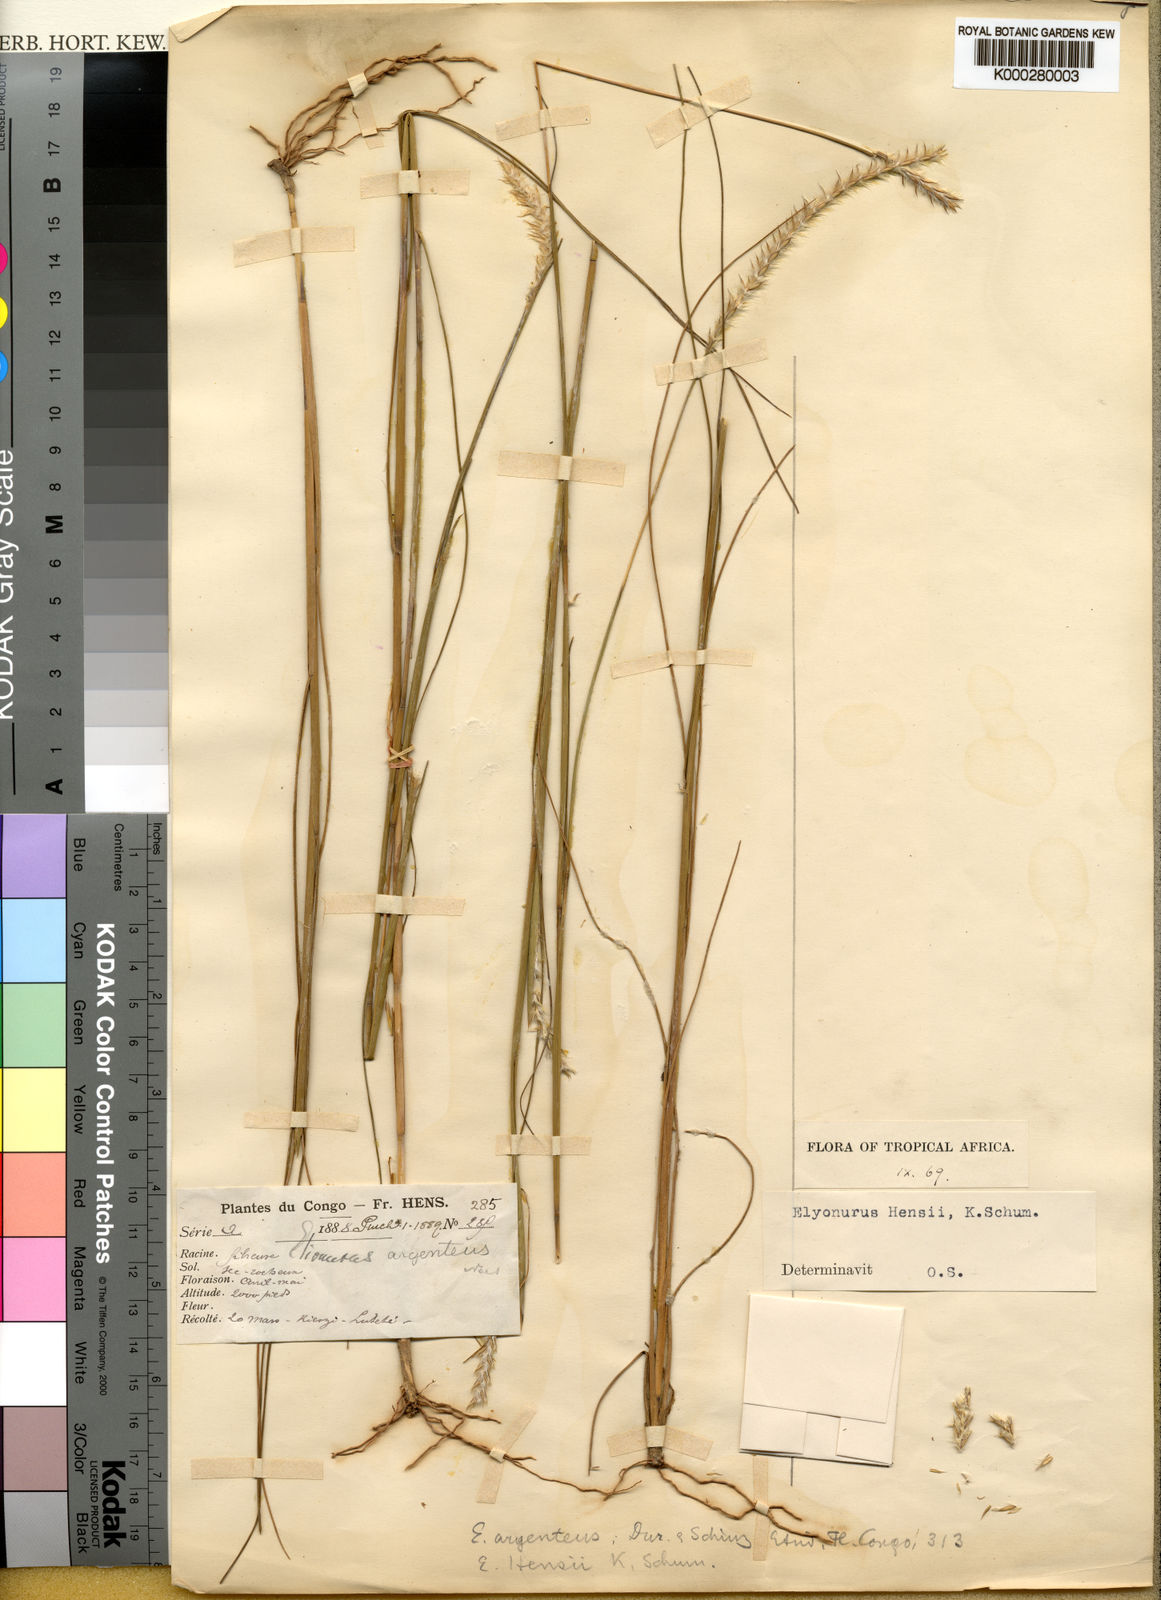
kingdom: Plantae
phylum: Tracheophyta
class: Liliopsida
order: Poales
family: Poaceae
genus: Elionurus
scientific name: Elionurus hensii
